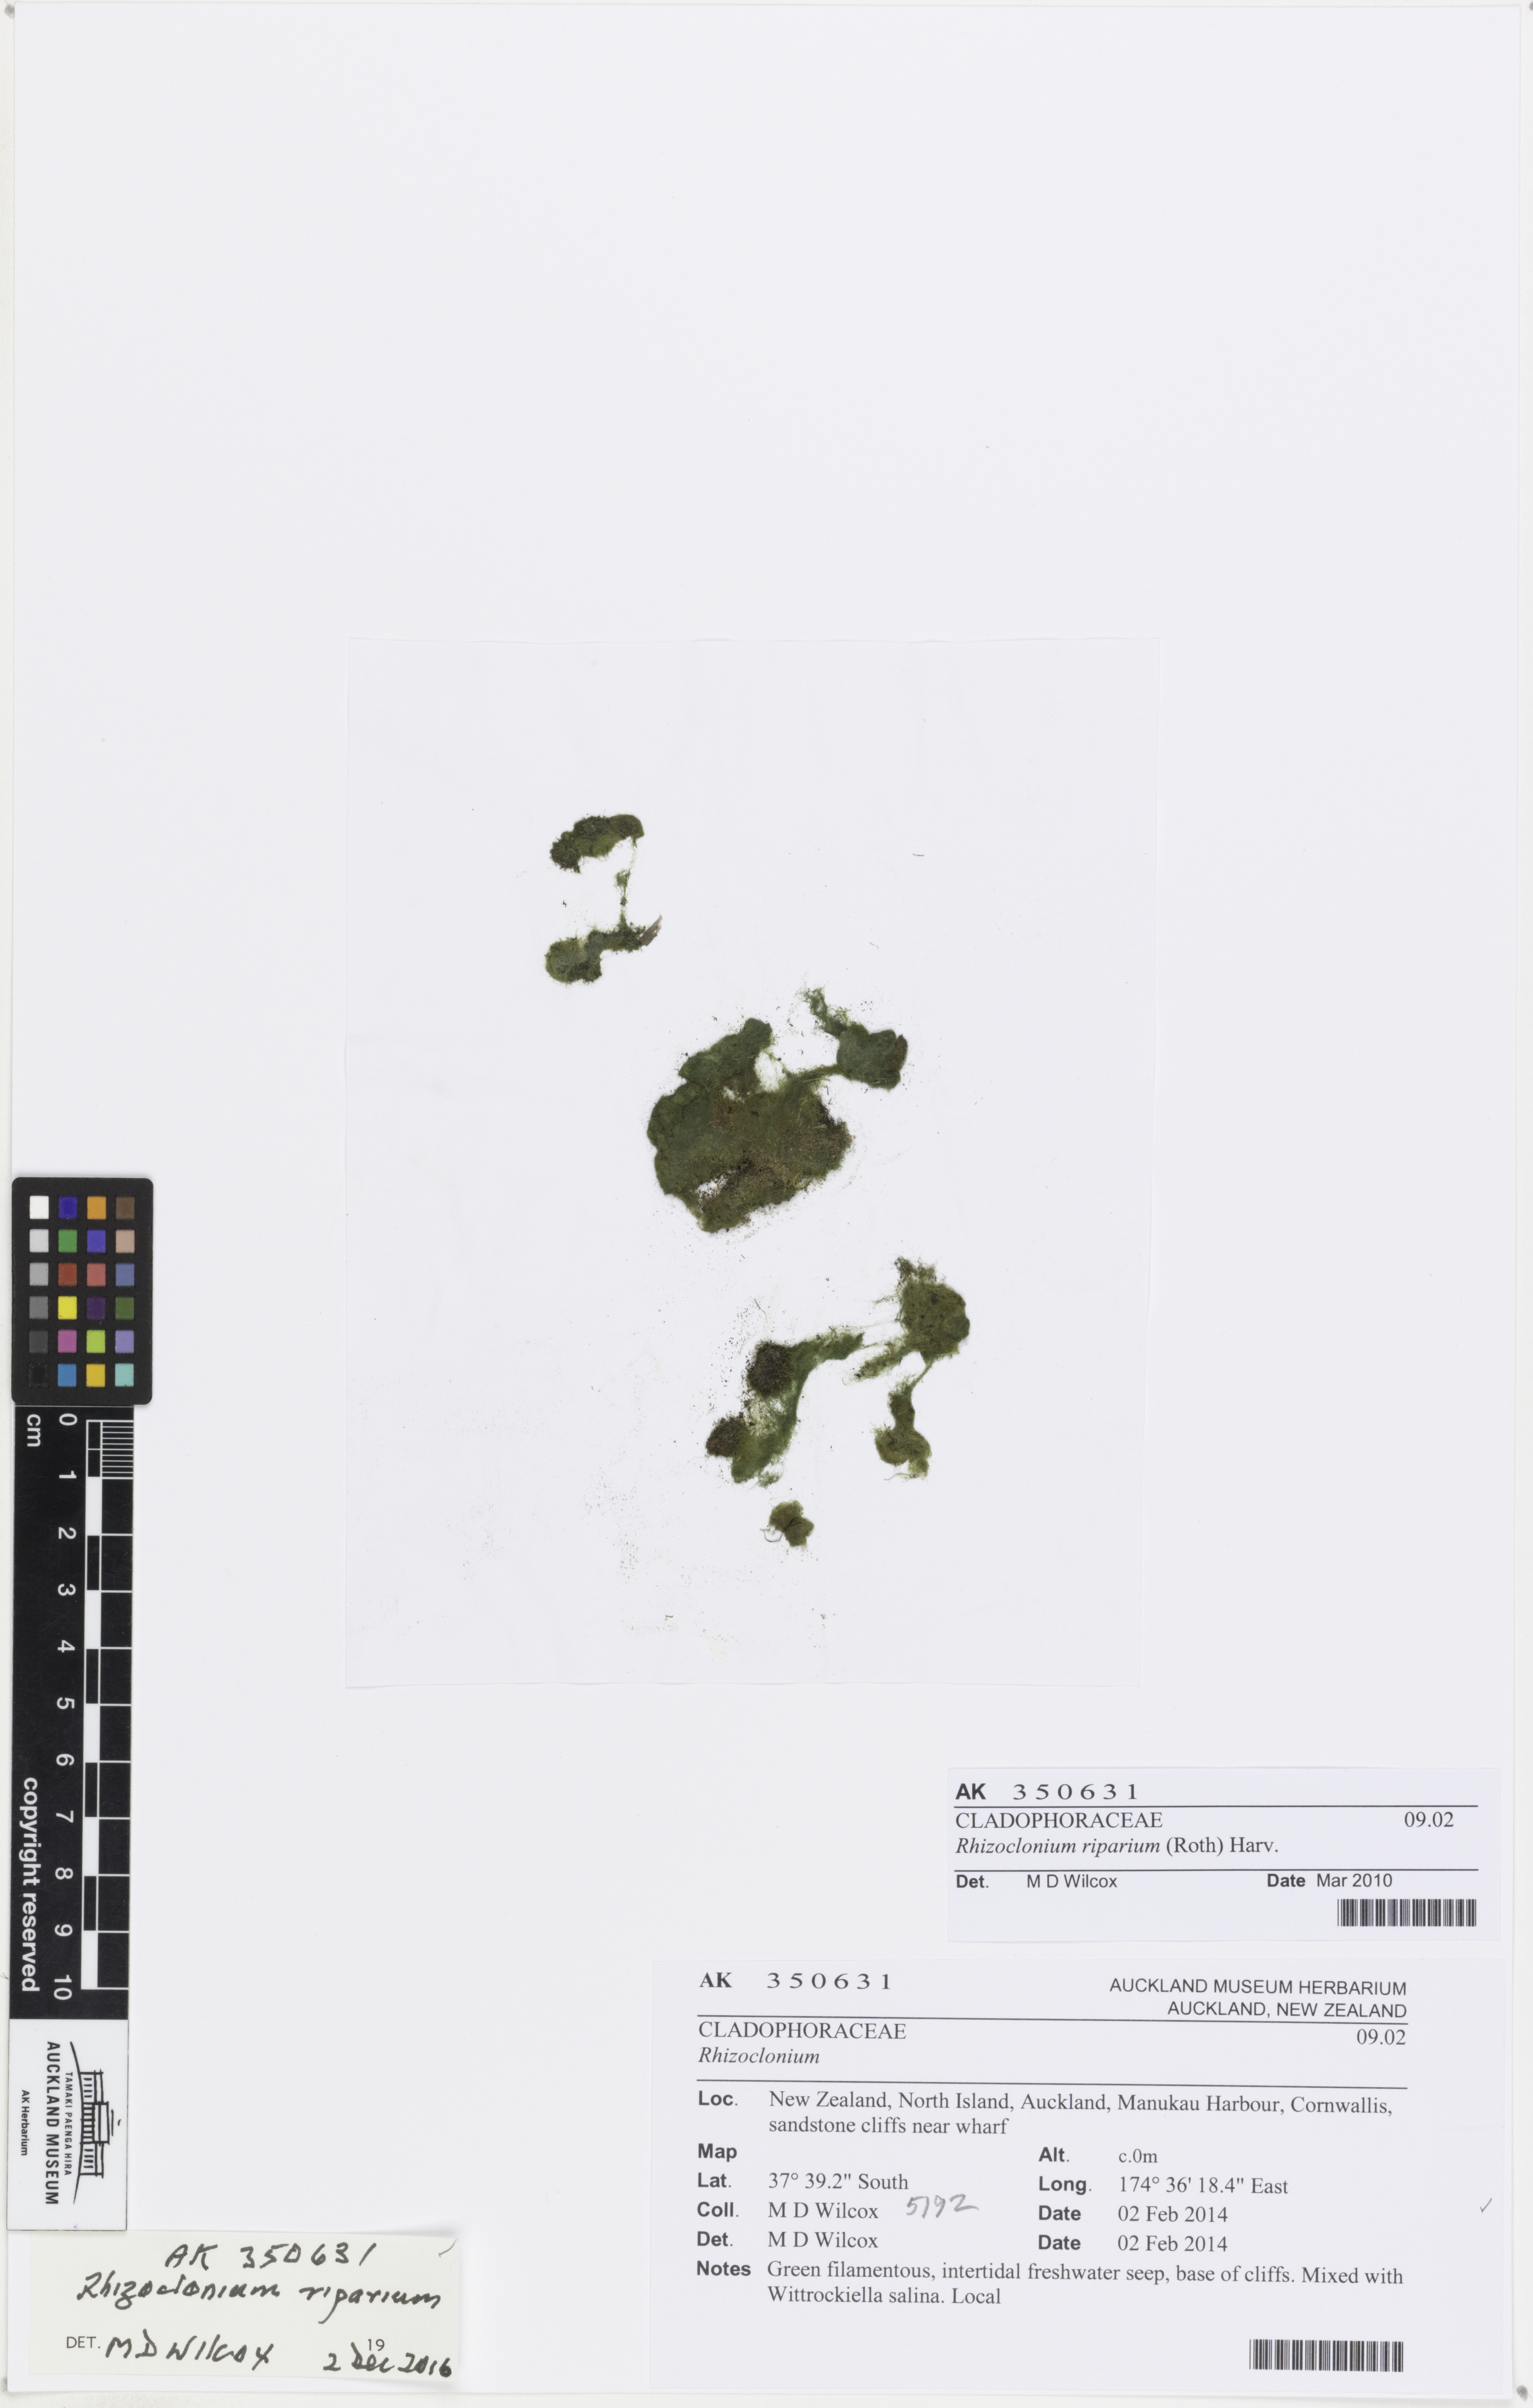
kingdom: Plantae
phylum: Chlorophyta
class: Ulvophyceae
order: Cladophorales
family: Cladophoraceae
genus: Rhizoclonium
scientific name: Rhizoclonium riparium
